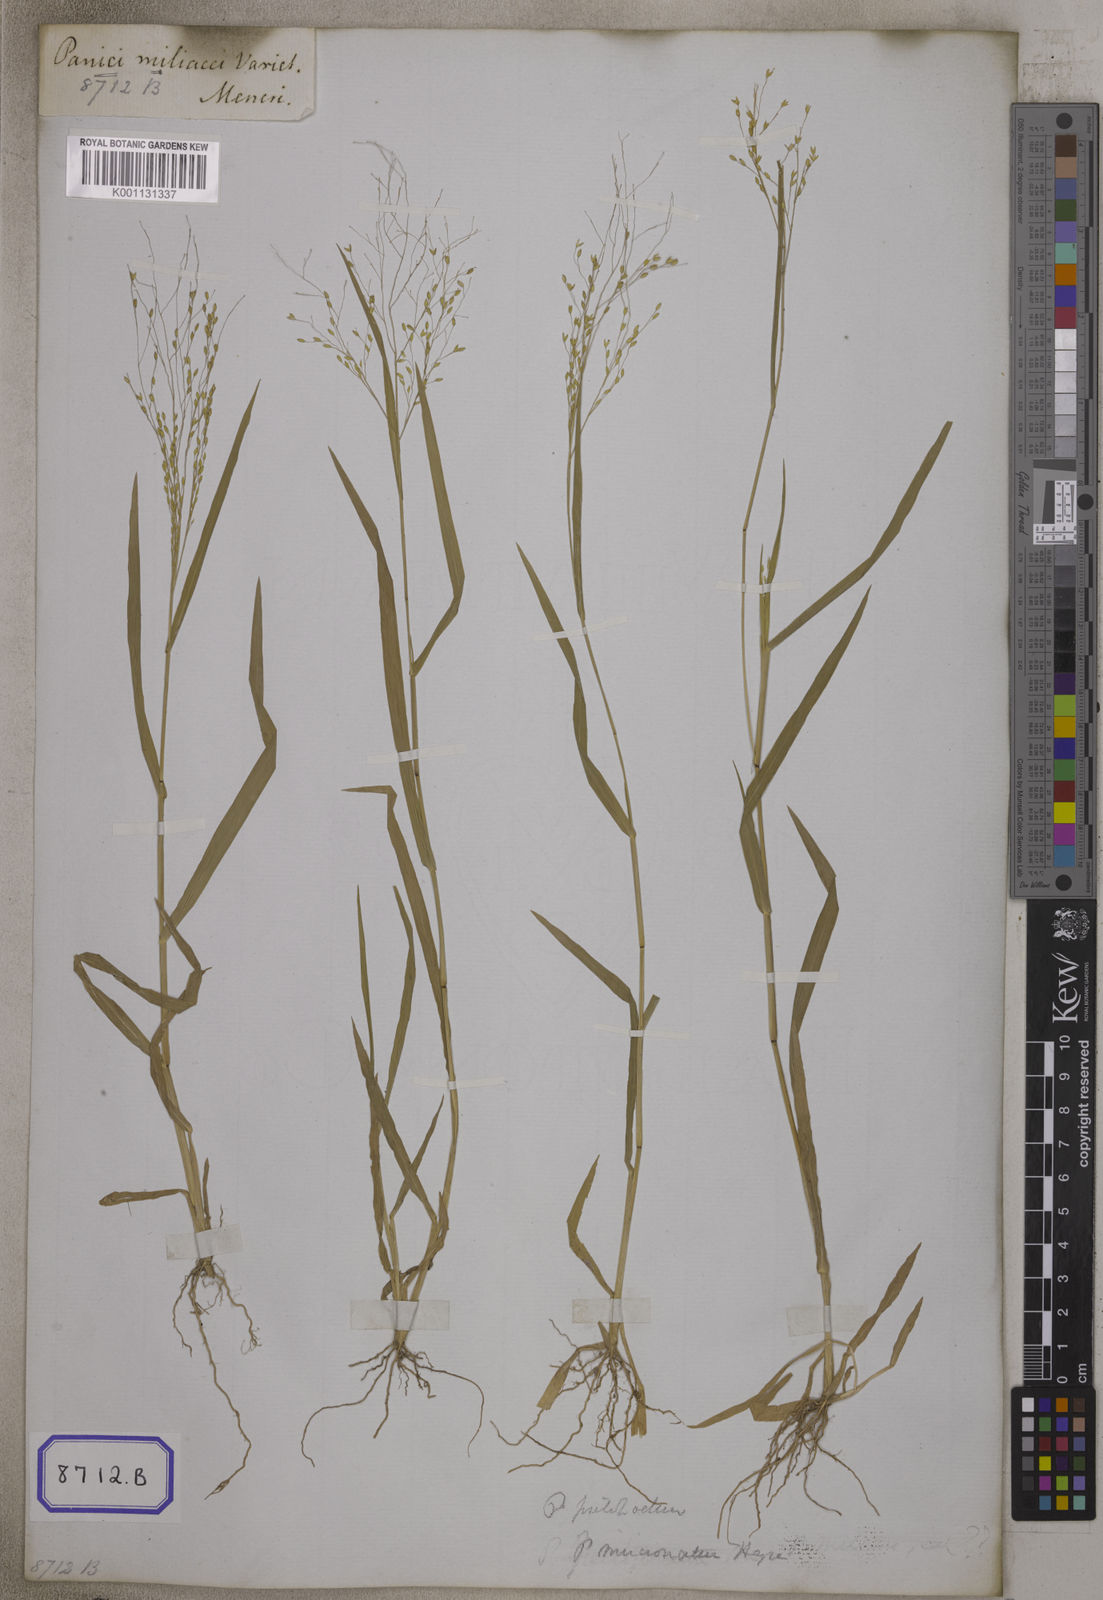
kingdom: Plantae
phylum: Tracheophyta
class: Liliopsida
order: Poales
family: Poaceae
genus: Panicum
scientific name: Panicum antidotale
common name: Blue panicum
